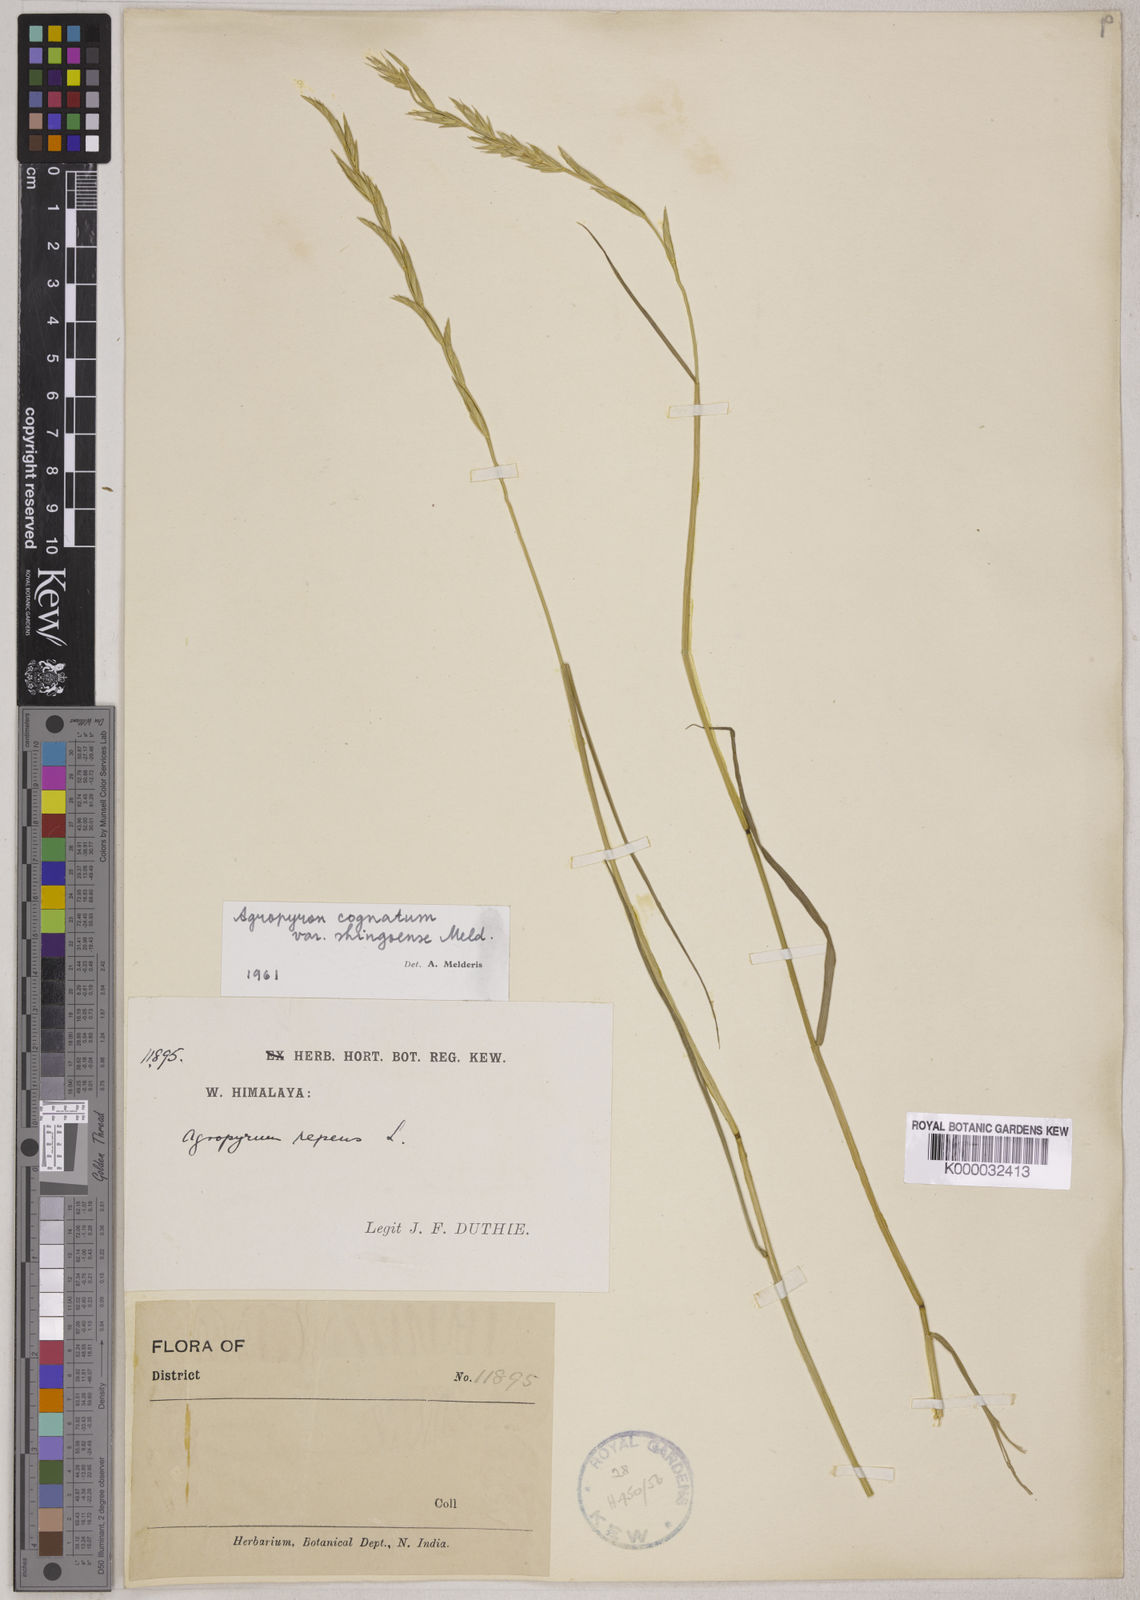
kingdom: Plantae
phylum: Tracheophyta
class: Liliopsida
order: Poales
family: Poaceae
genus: Pseudoroegneria
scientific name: Pseudoroegneria cognata
